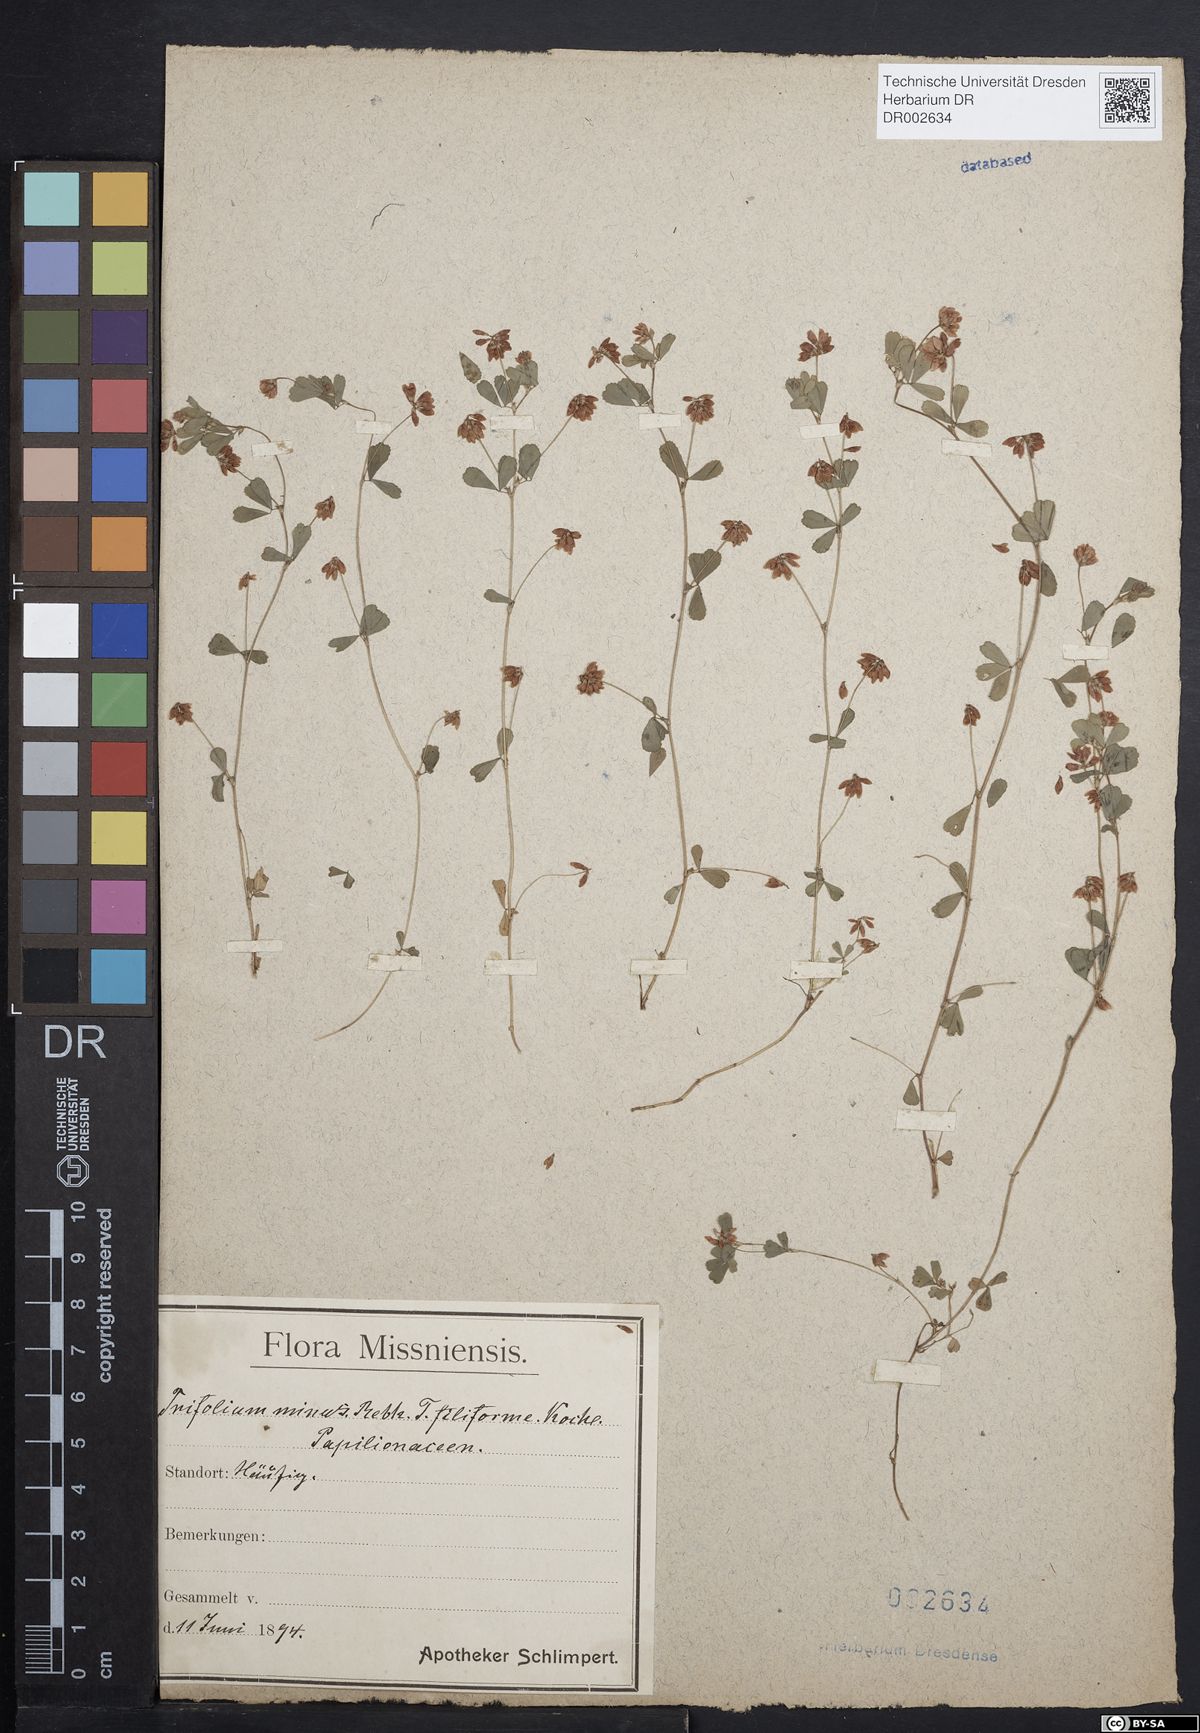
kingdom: Plantae
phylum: Tracheophyta
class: Magnoliopsida
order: Fabales
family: Fabaceae
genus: Trifolium
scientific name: Trifolium dubium
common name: Suckling clover
